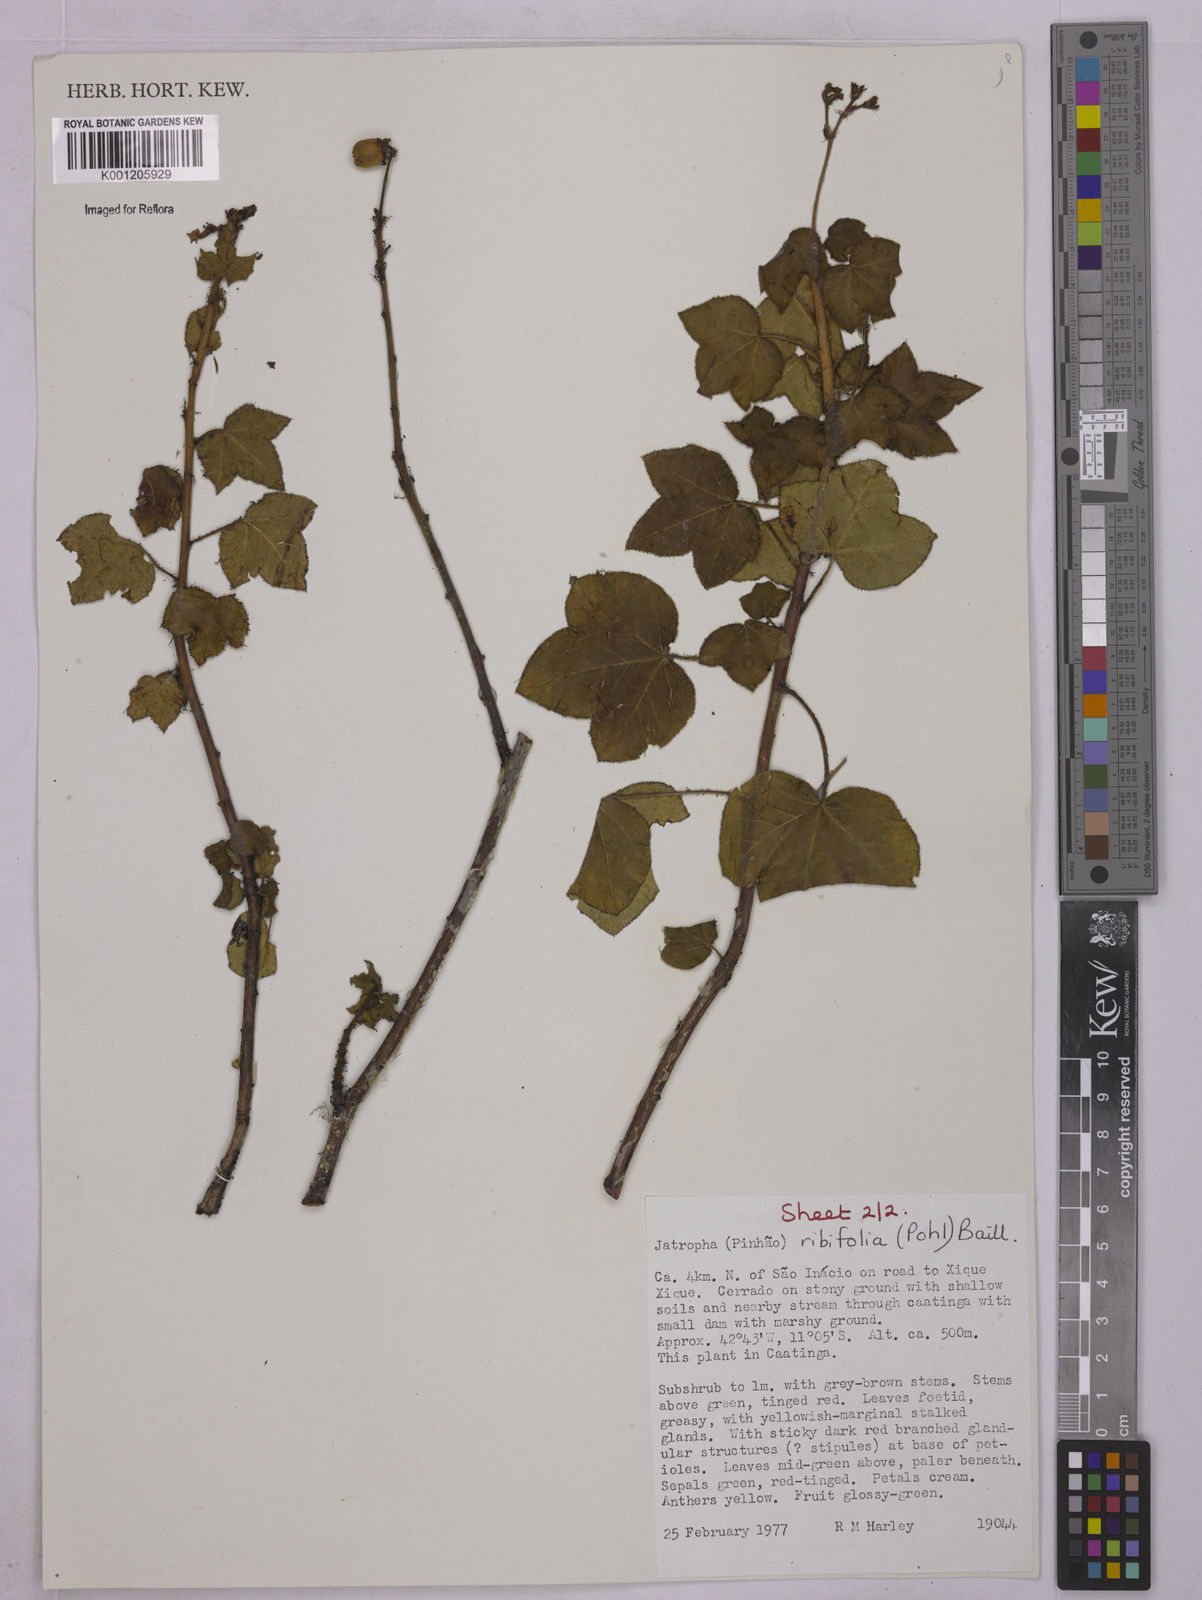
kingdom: Plantae
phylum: Tracheophyta
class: Magnoliopsida
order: Malpighiales
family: Euphorbiaceae
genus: Jatropha
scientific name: Jatropha ribifolia
